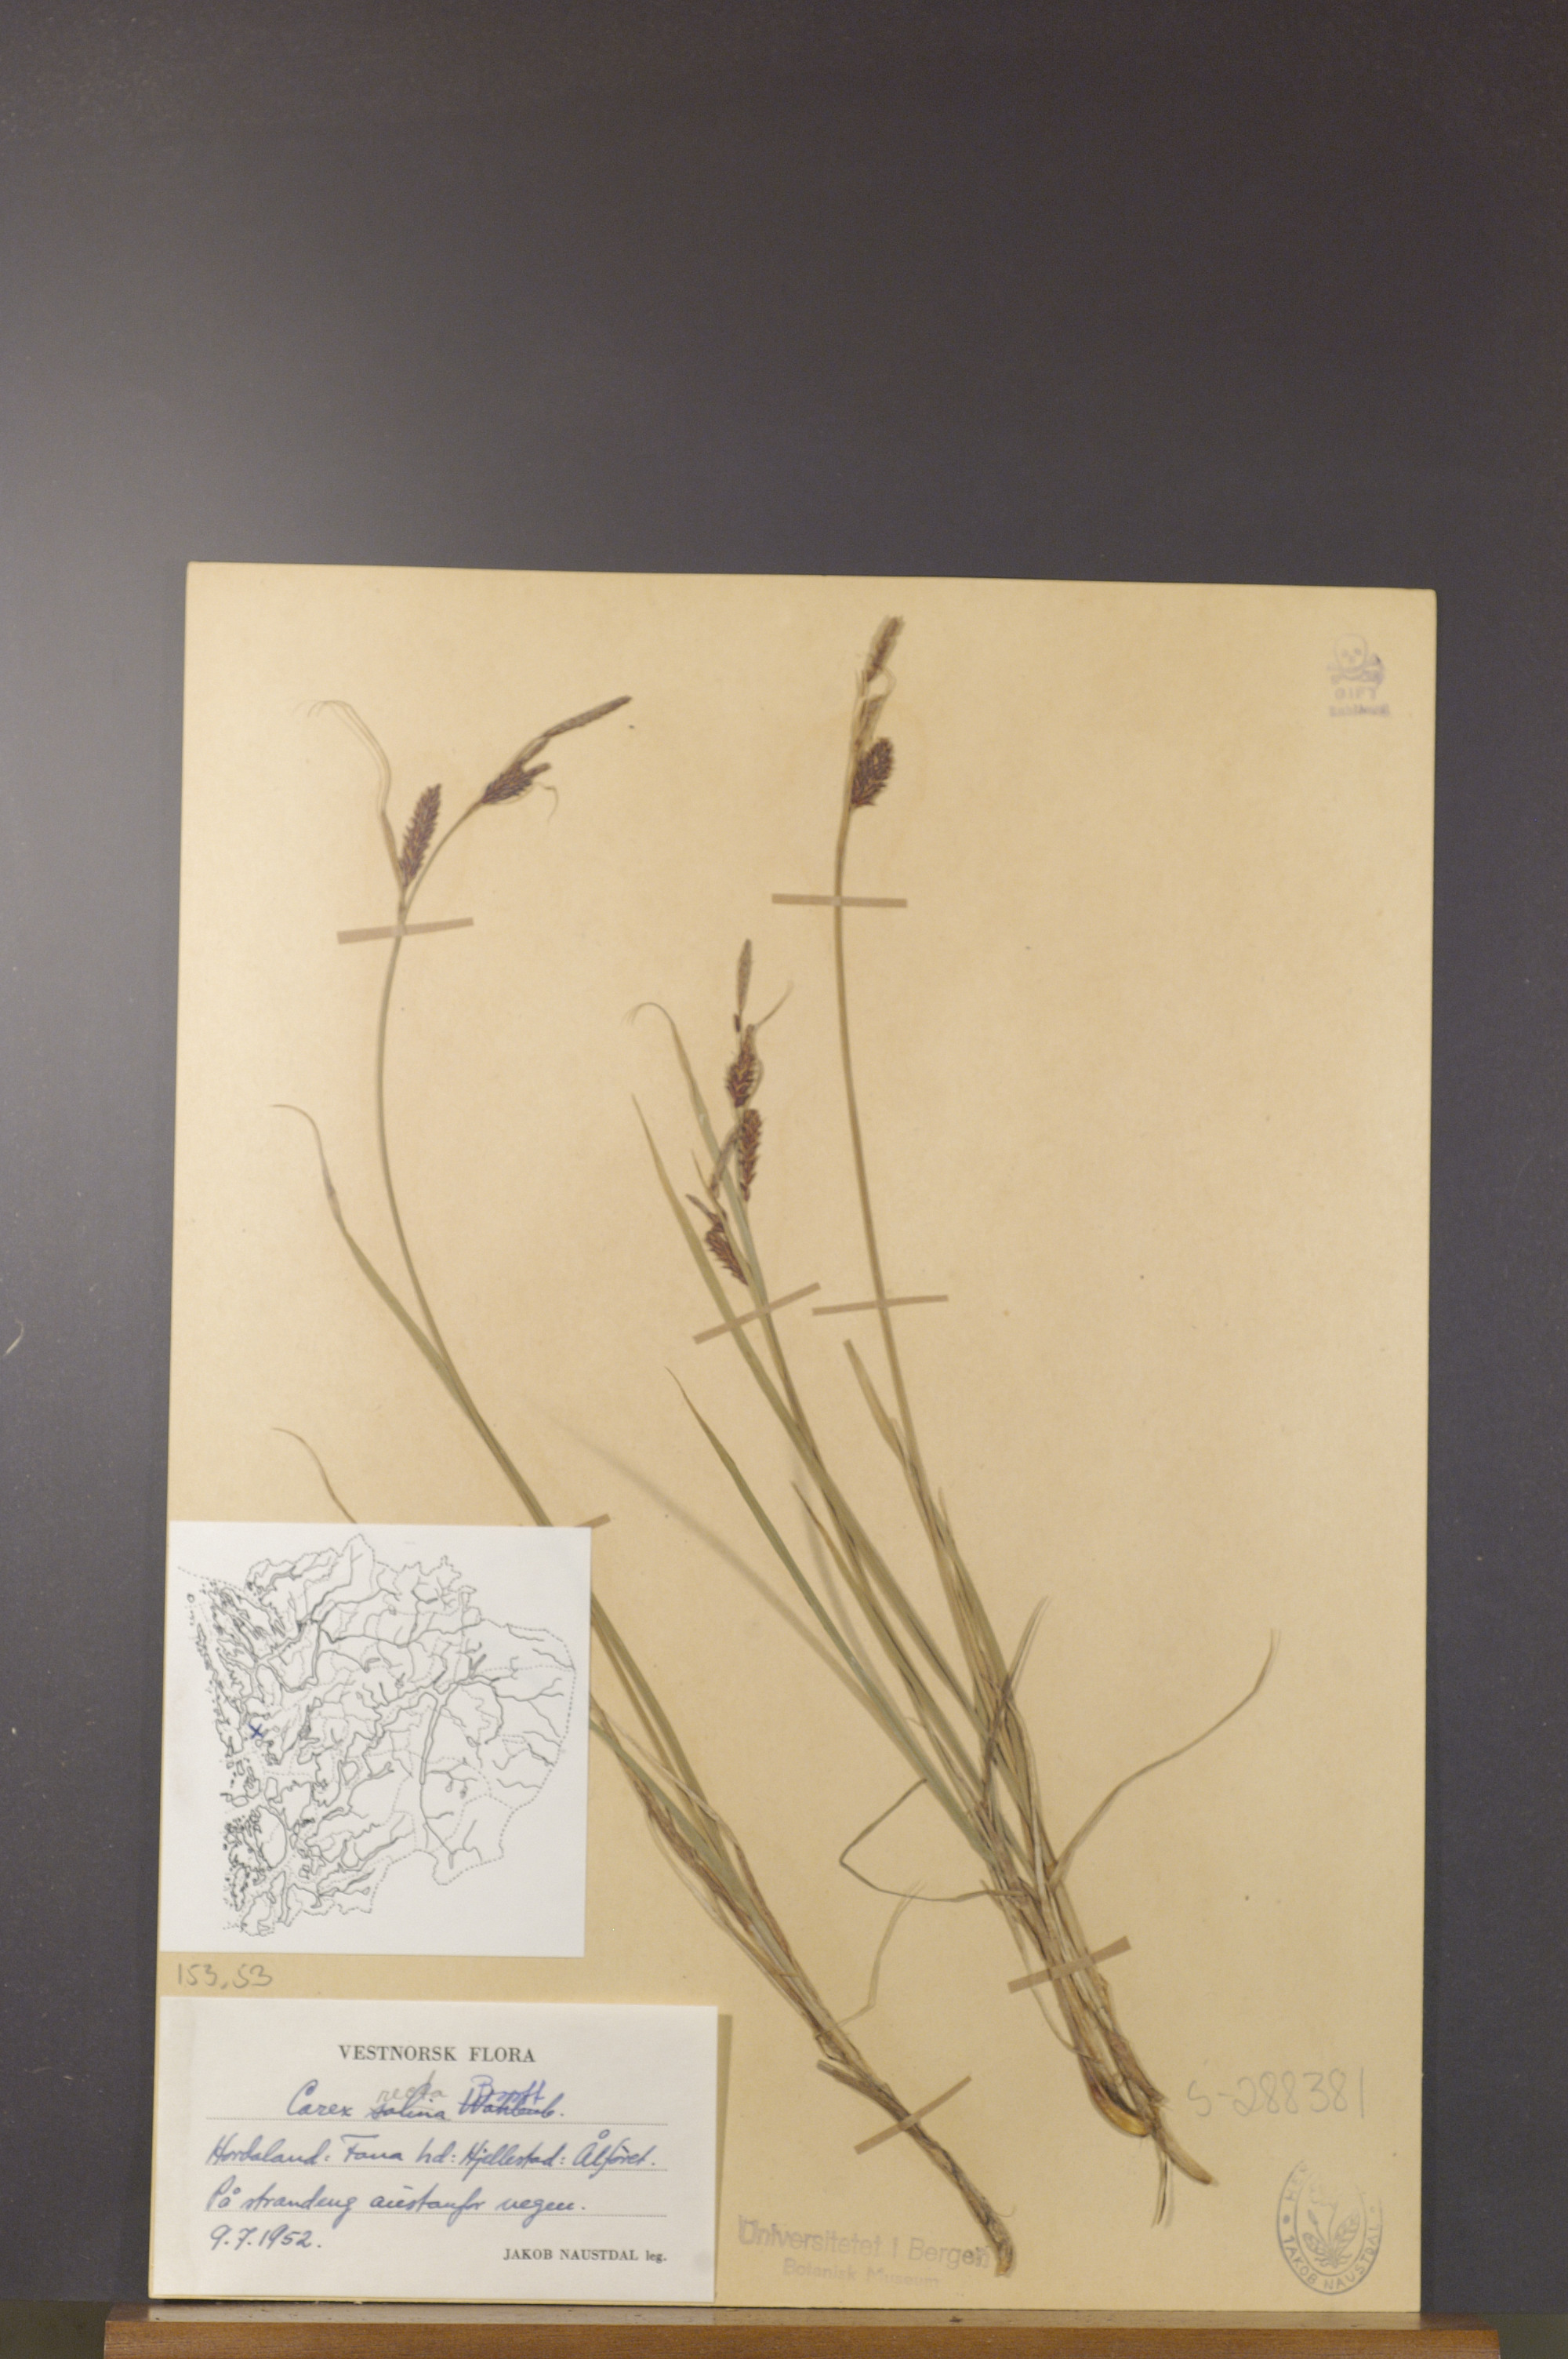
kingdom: Plantae
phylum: Tracheophyta
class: Liliopsida
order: Poales
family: Cyperaceae
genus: Carex
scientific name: Carex recta
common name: Estuarine sedge
